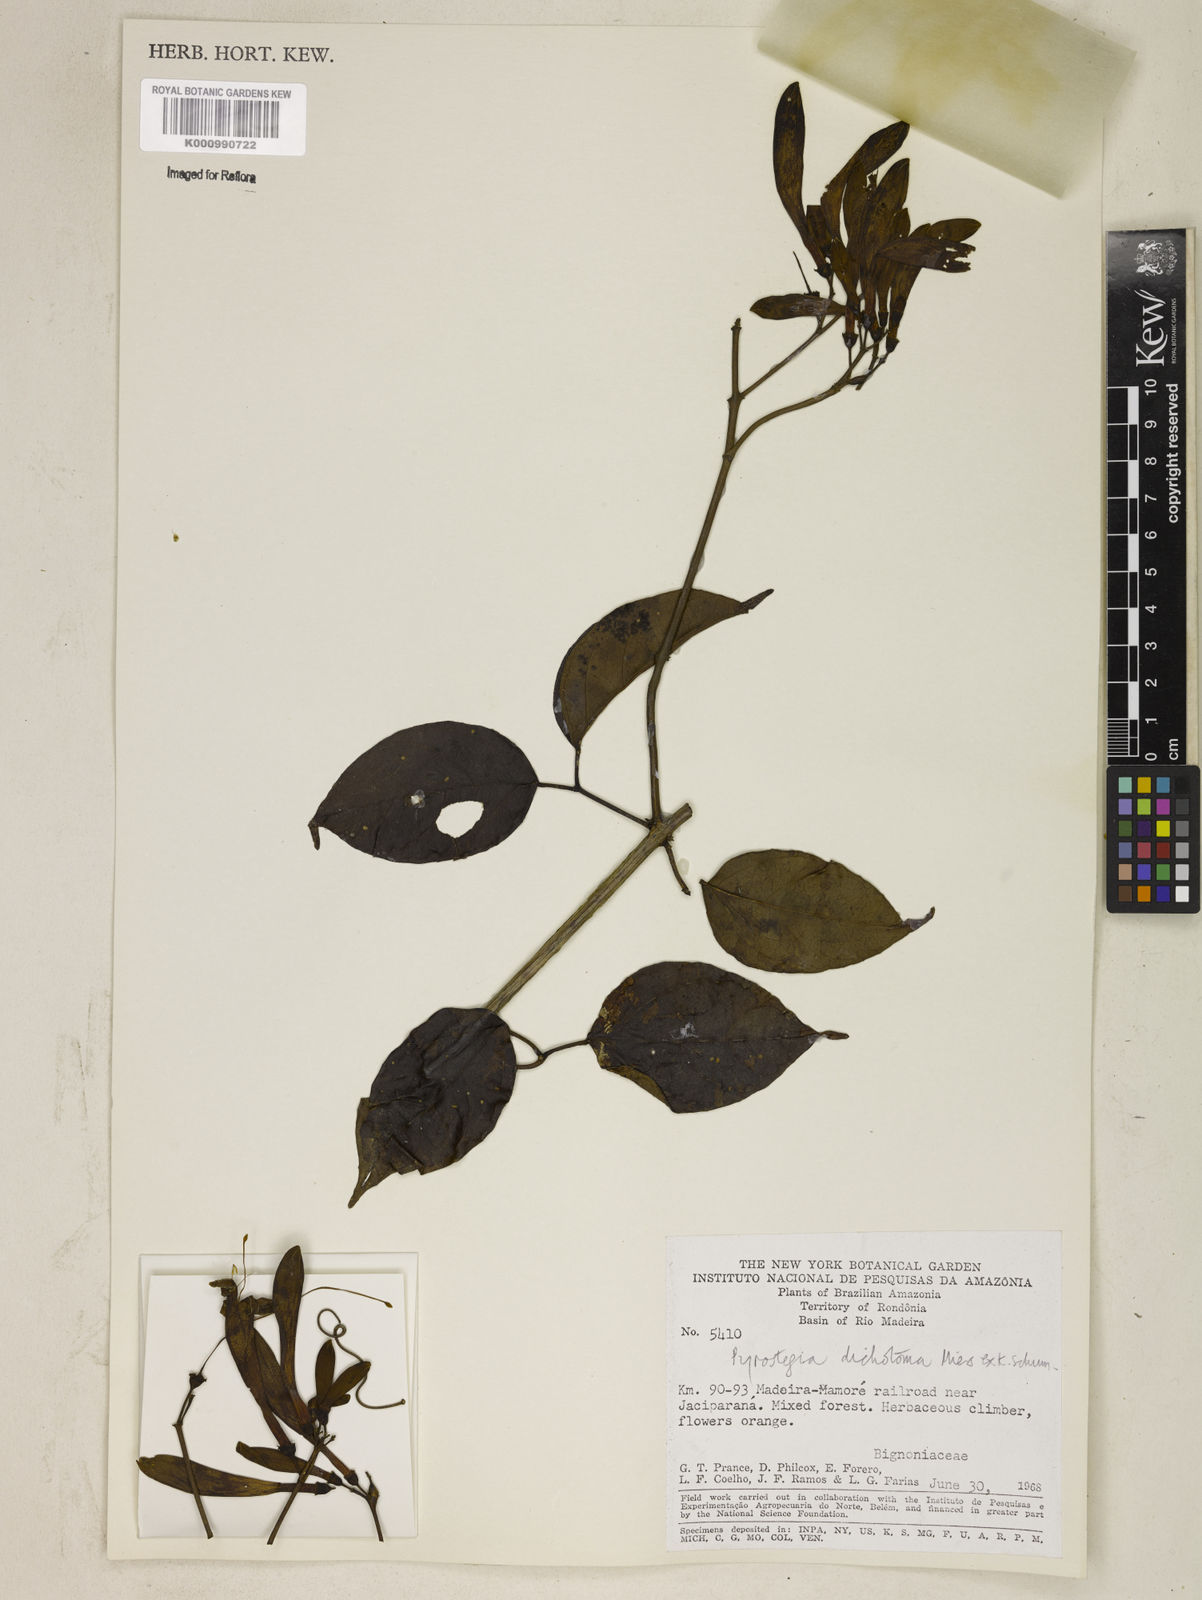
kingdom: Plantae
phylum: Tracheophyta
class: Magnoliopsida
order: Lamiales
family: Bignoniaceae
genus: Pyrostegia
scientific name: Pyrostegia
